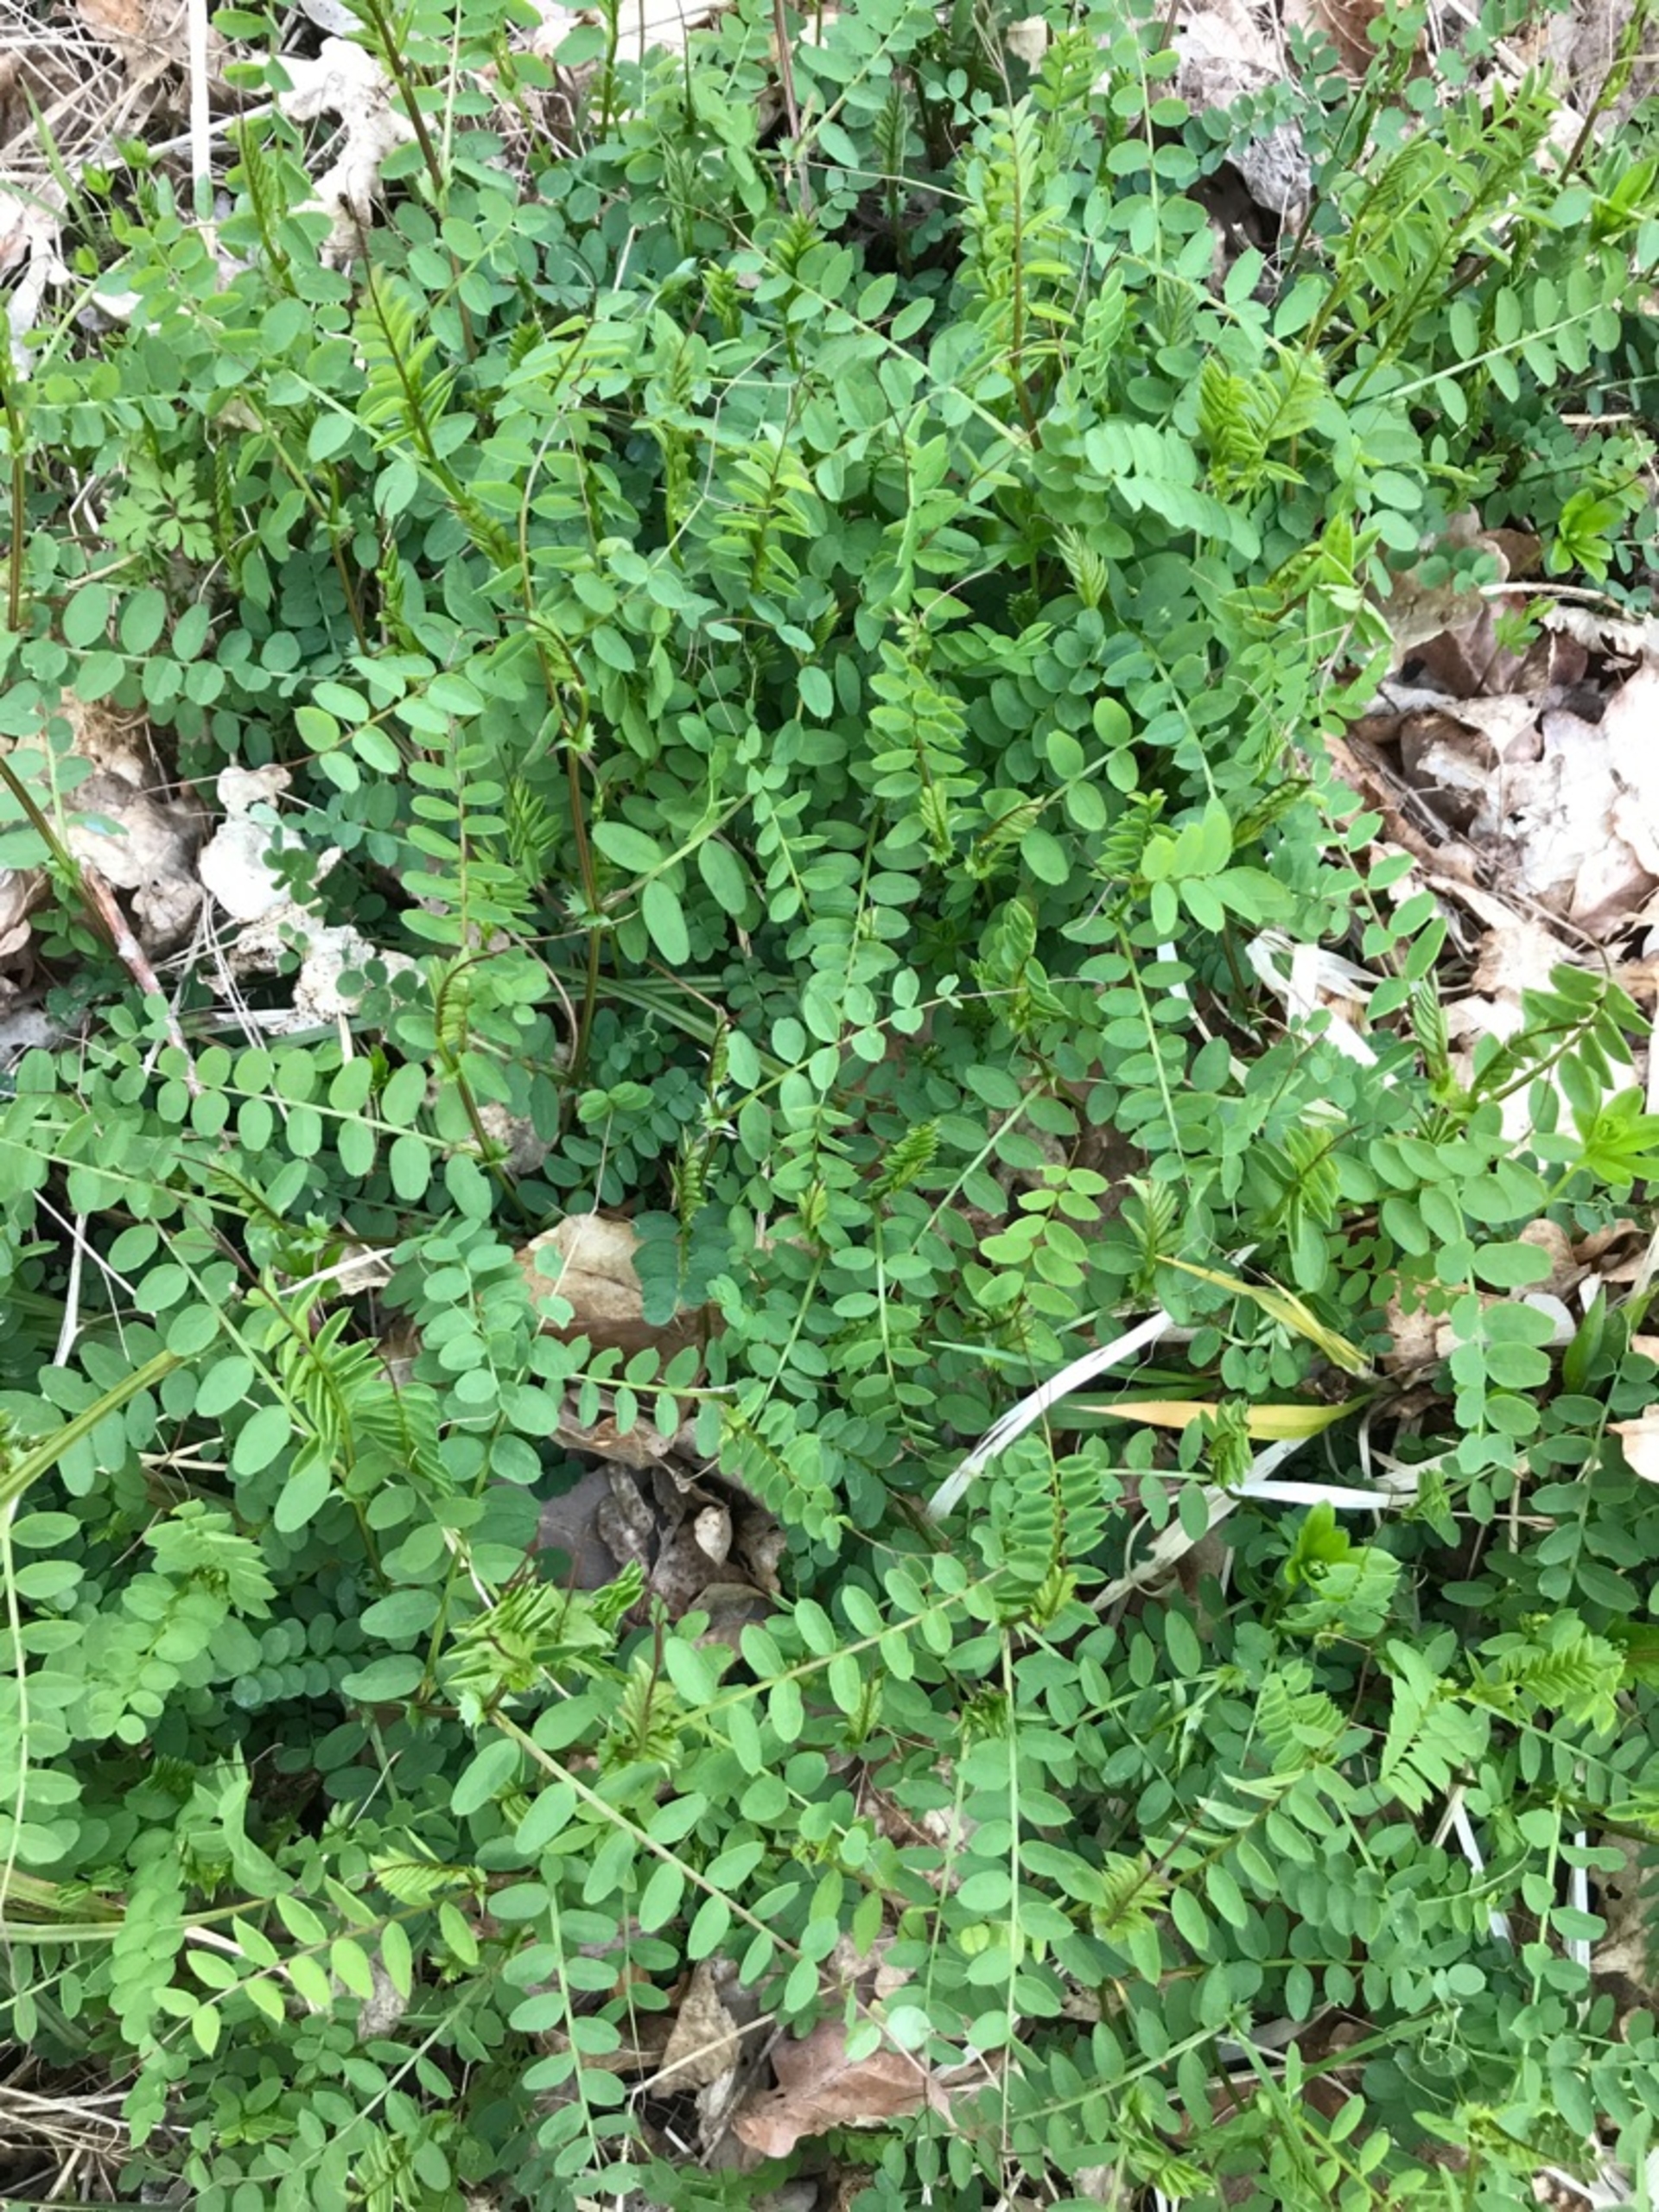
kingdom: Plantae
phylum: Tracheophyta
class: Magnoliopsida
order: Fabales
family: Fabaceae
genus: Vicia
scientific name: Vicia sylvatica
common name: Skov-vikke
